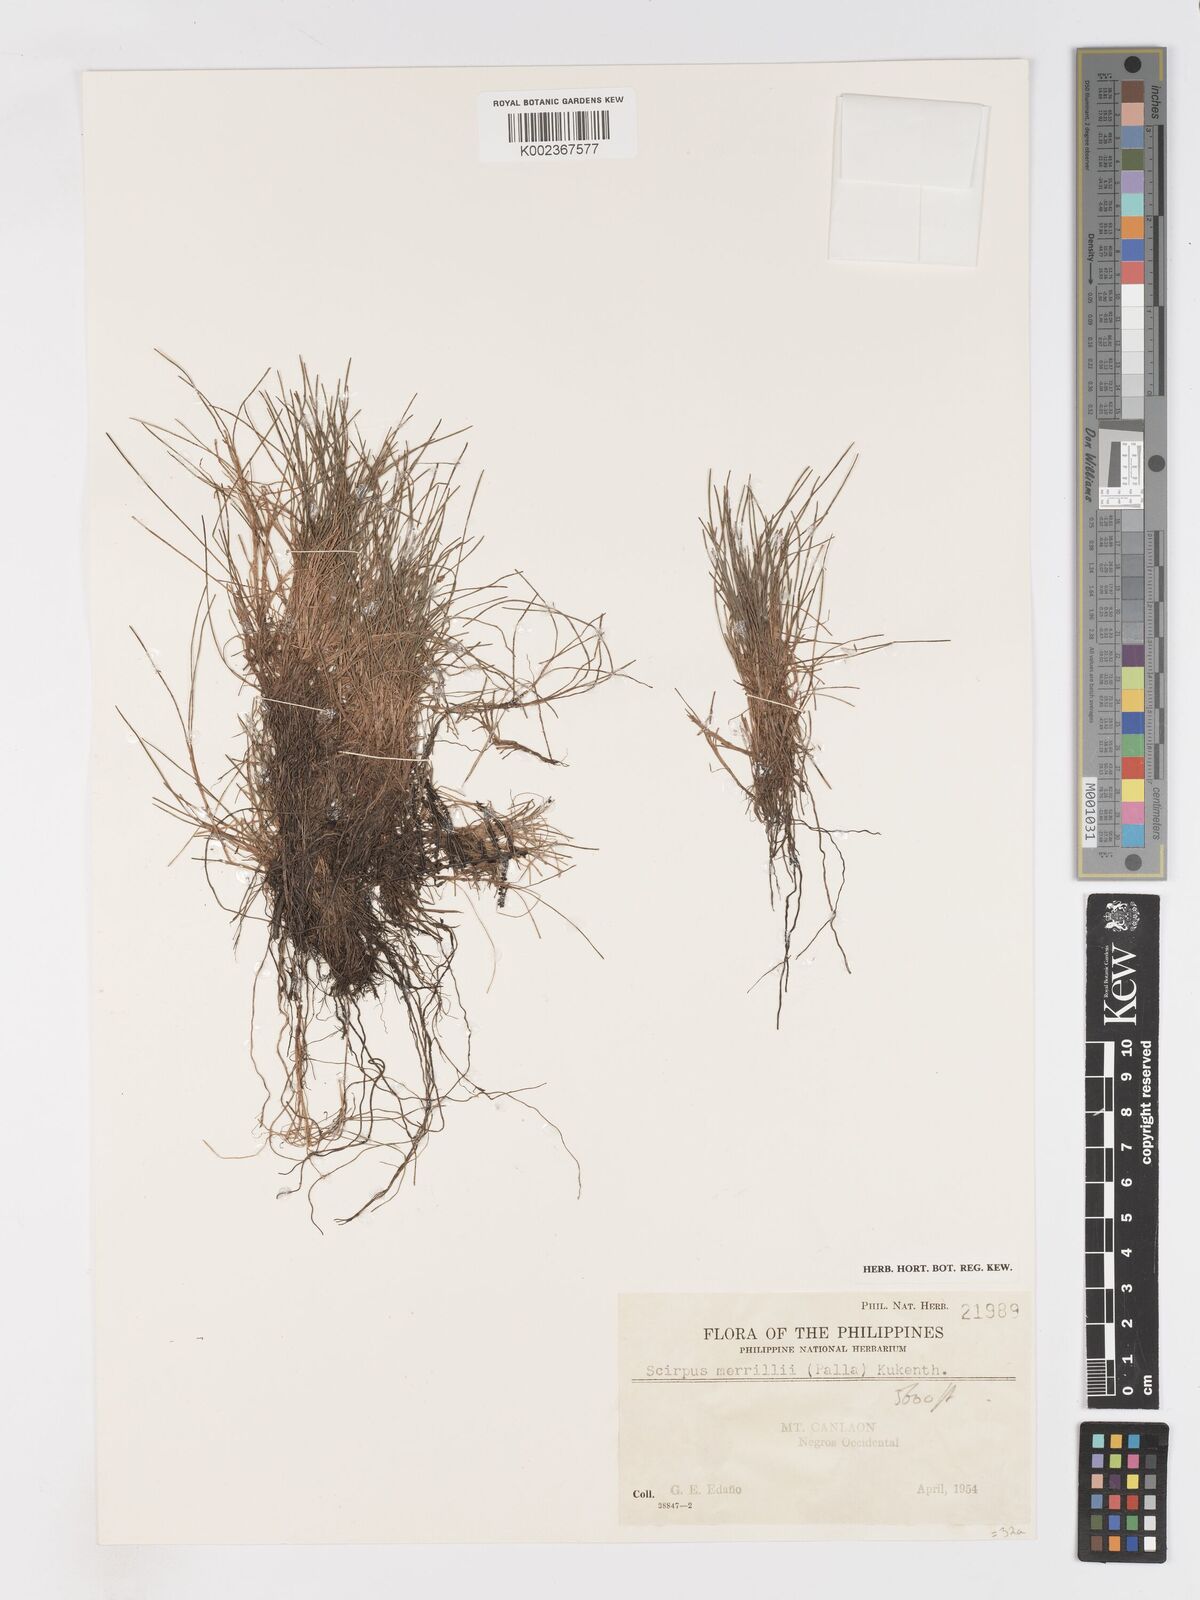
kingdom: Plantae
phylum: Tracheophyta
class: Liliopsida
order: Poales
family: Cyperaceae
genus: Isolepis
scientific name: Isolepis subtilissima
